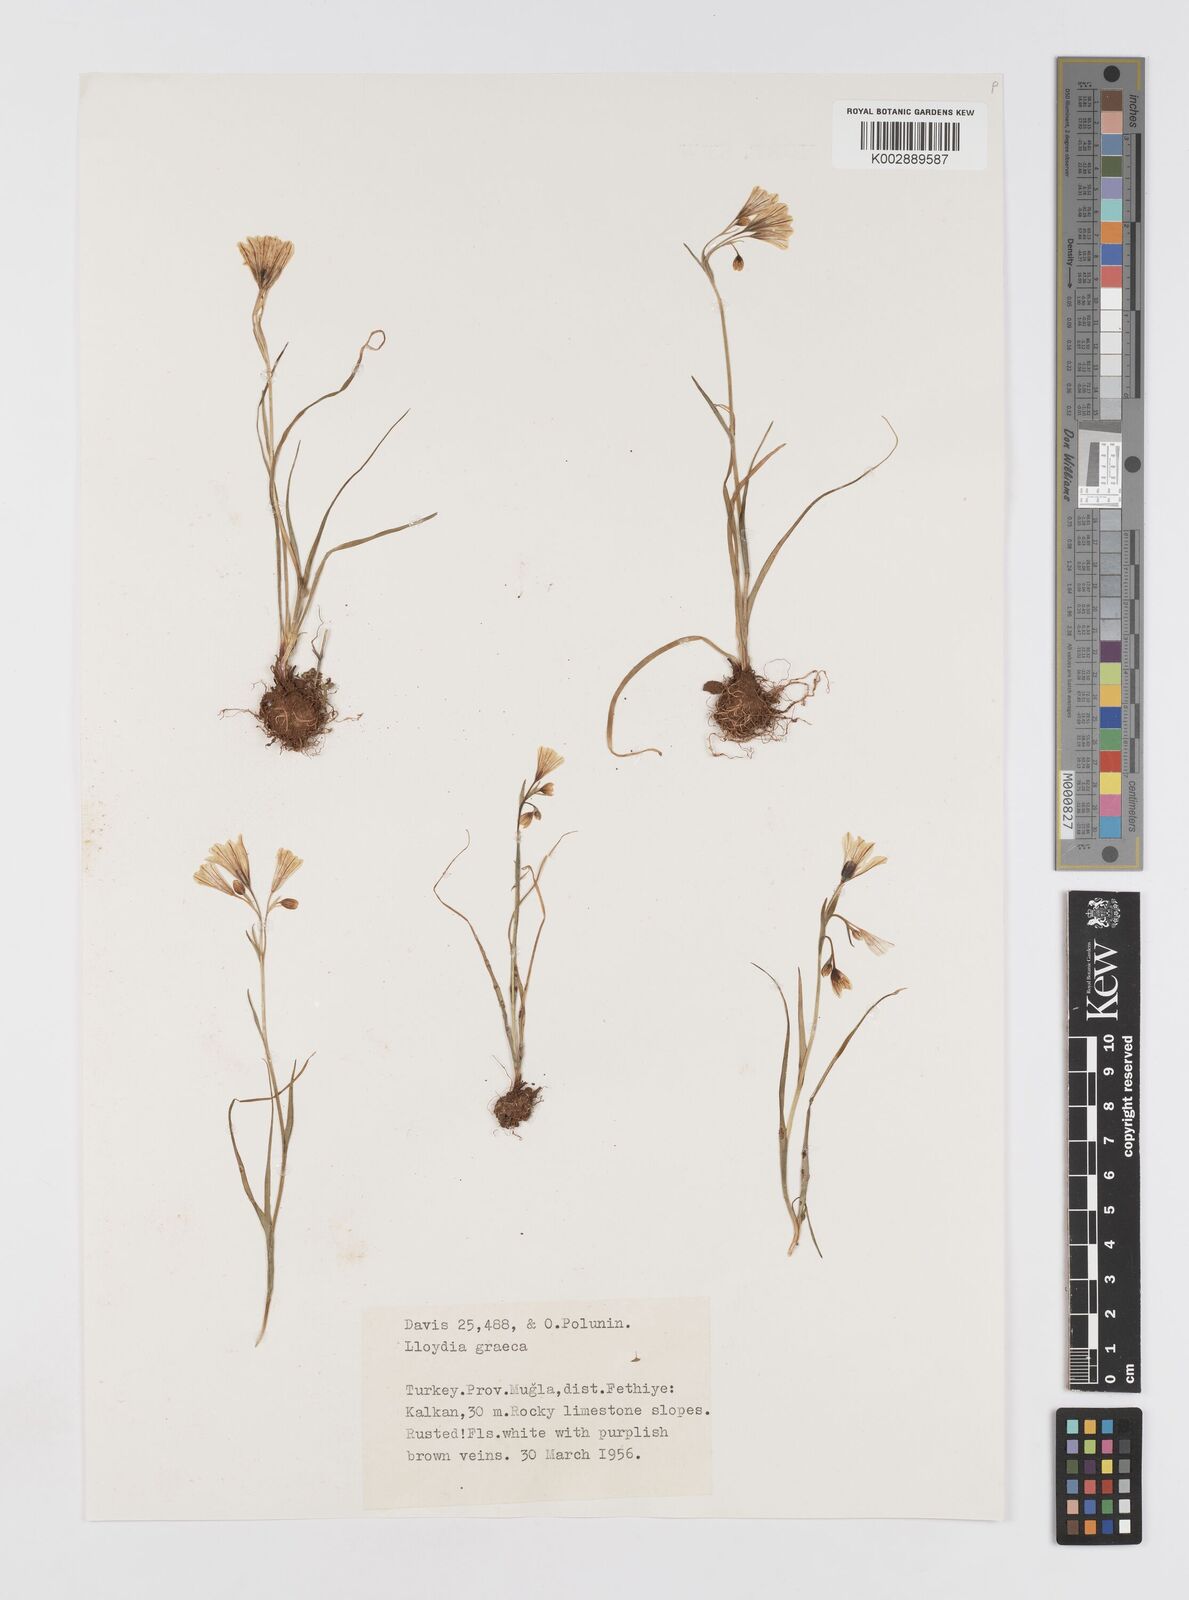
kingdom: Plantae
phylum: Tracheophyta
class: Liliopsida
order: Liliales
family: Liliaceae
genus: Gagea
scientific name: Gagea graeca
